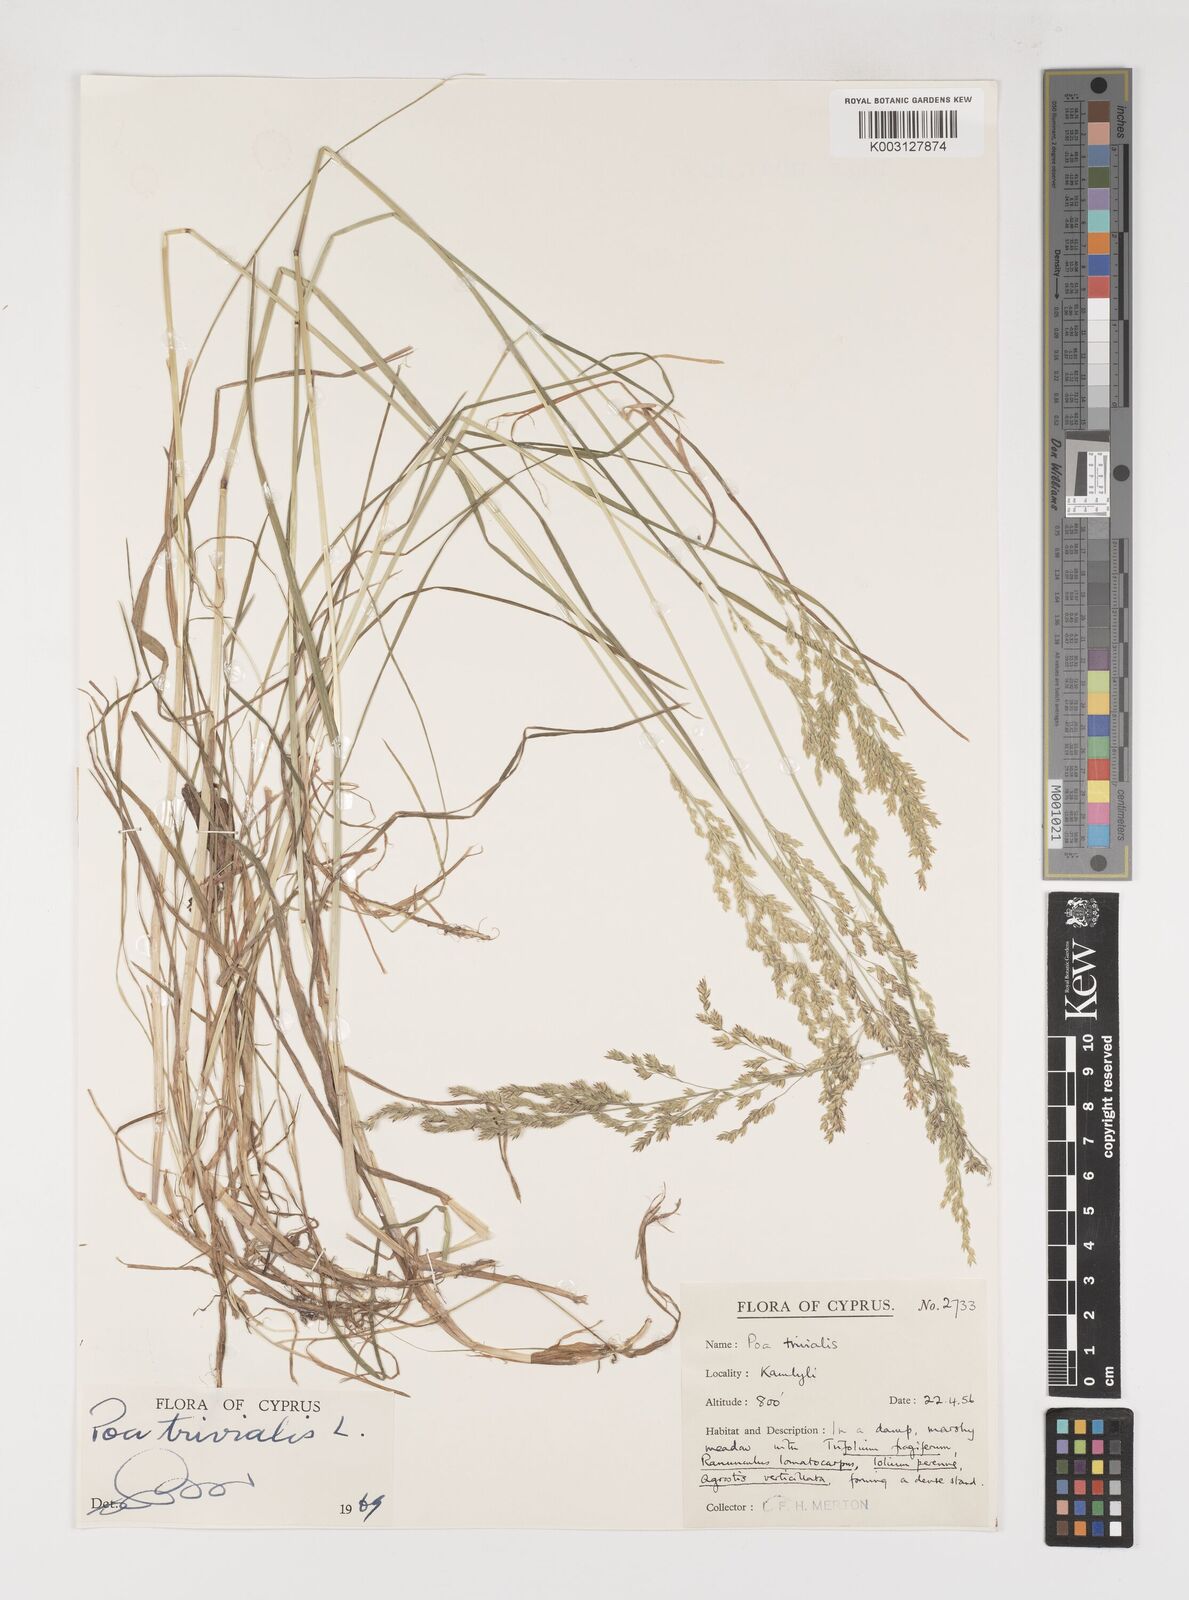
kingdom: Plantae
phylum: Tracheophyta
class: Liliopsida
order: Poales
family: Poaceae
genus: Poa
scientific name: Poa trivialis
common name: Rough bluegrass
